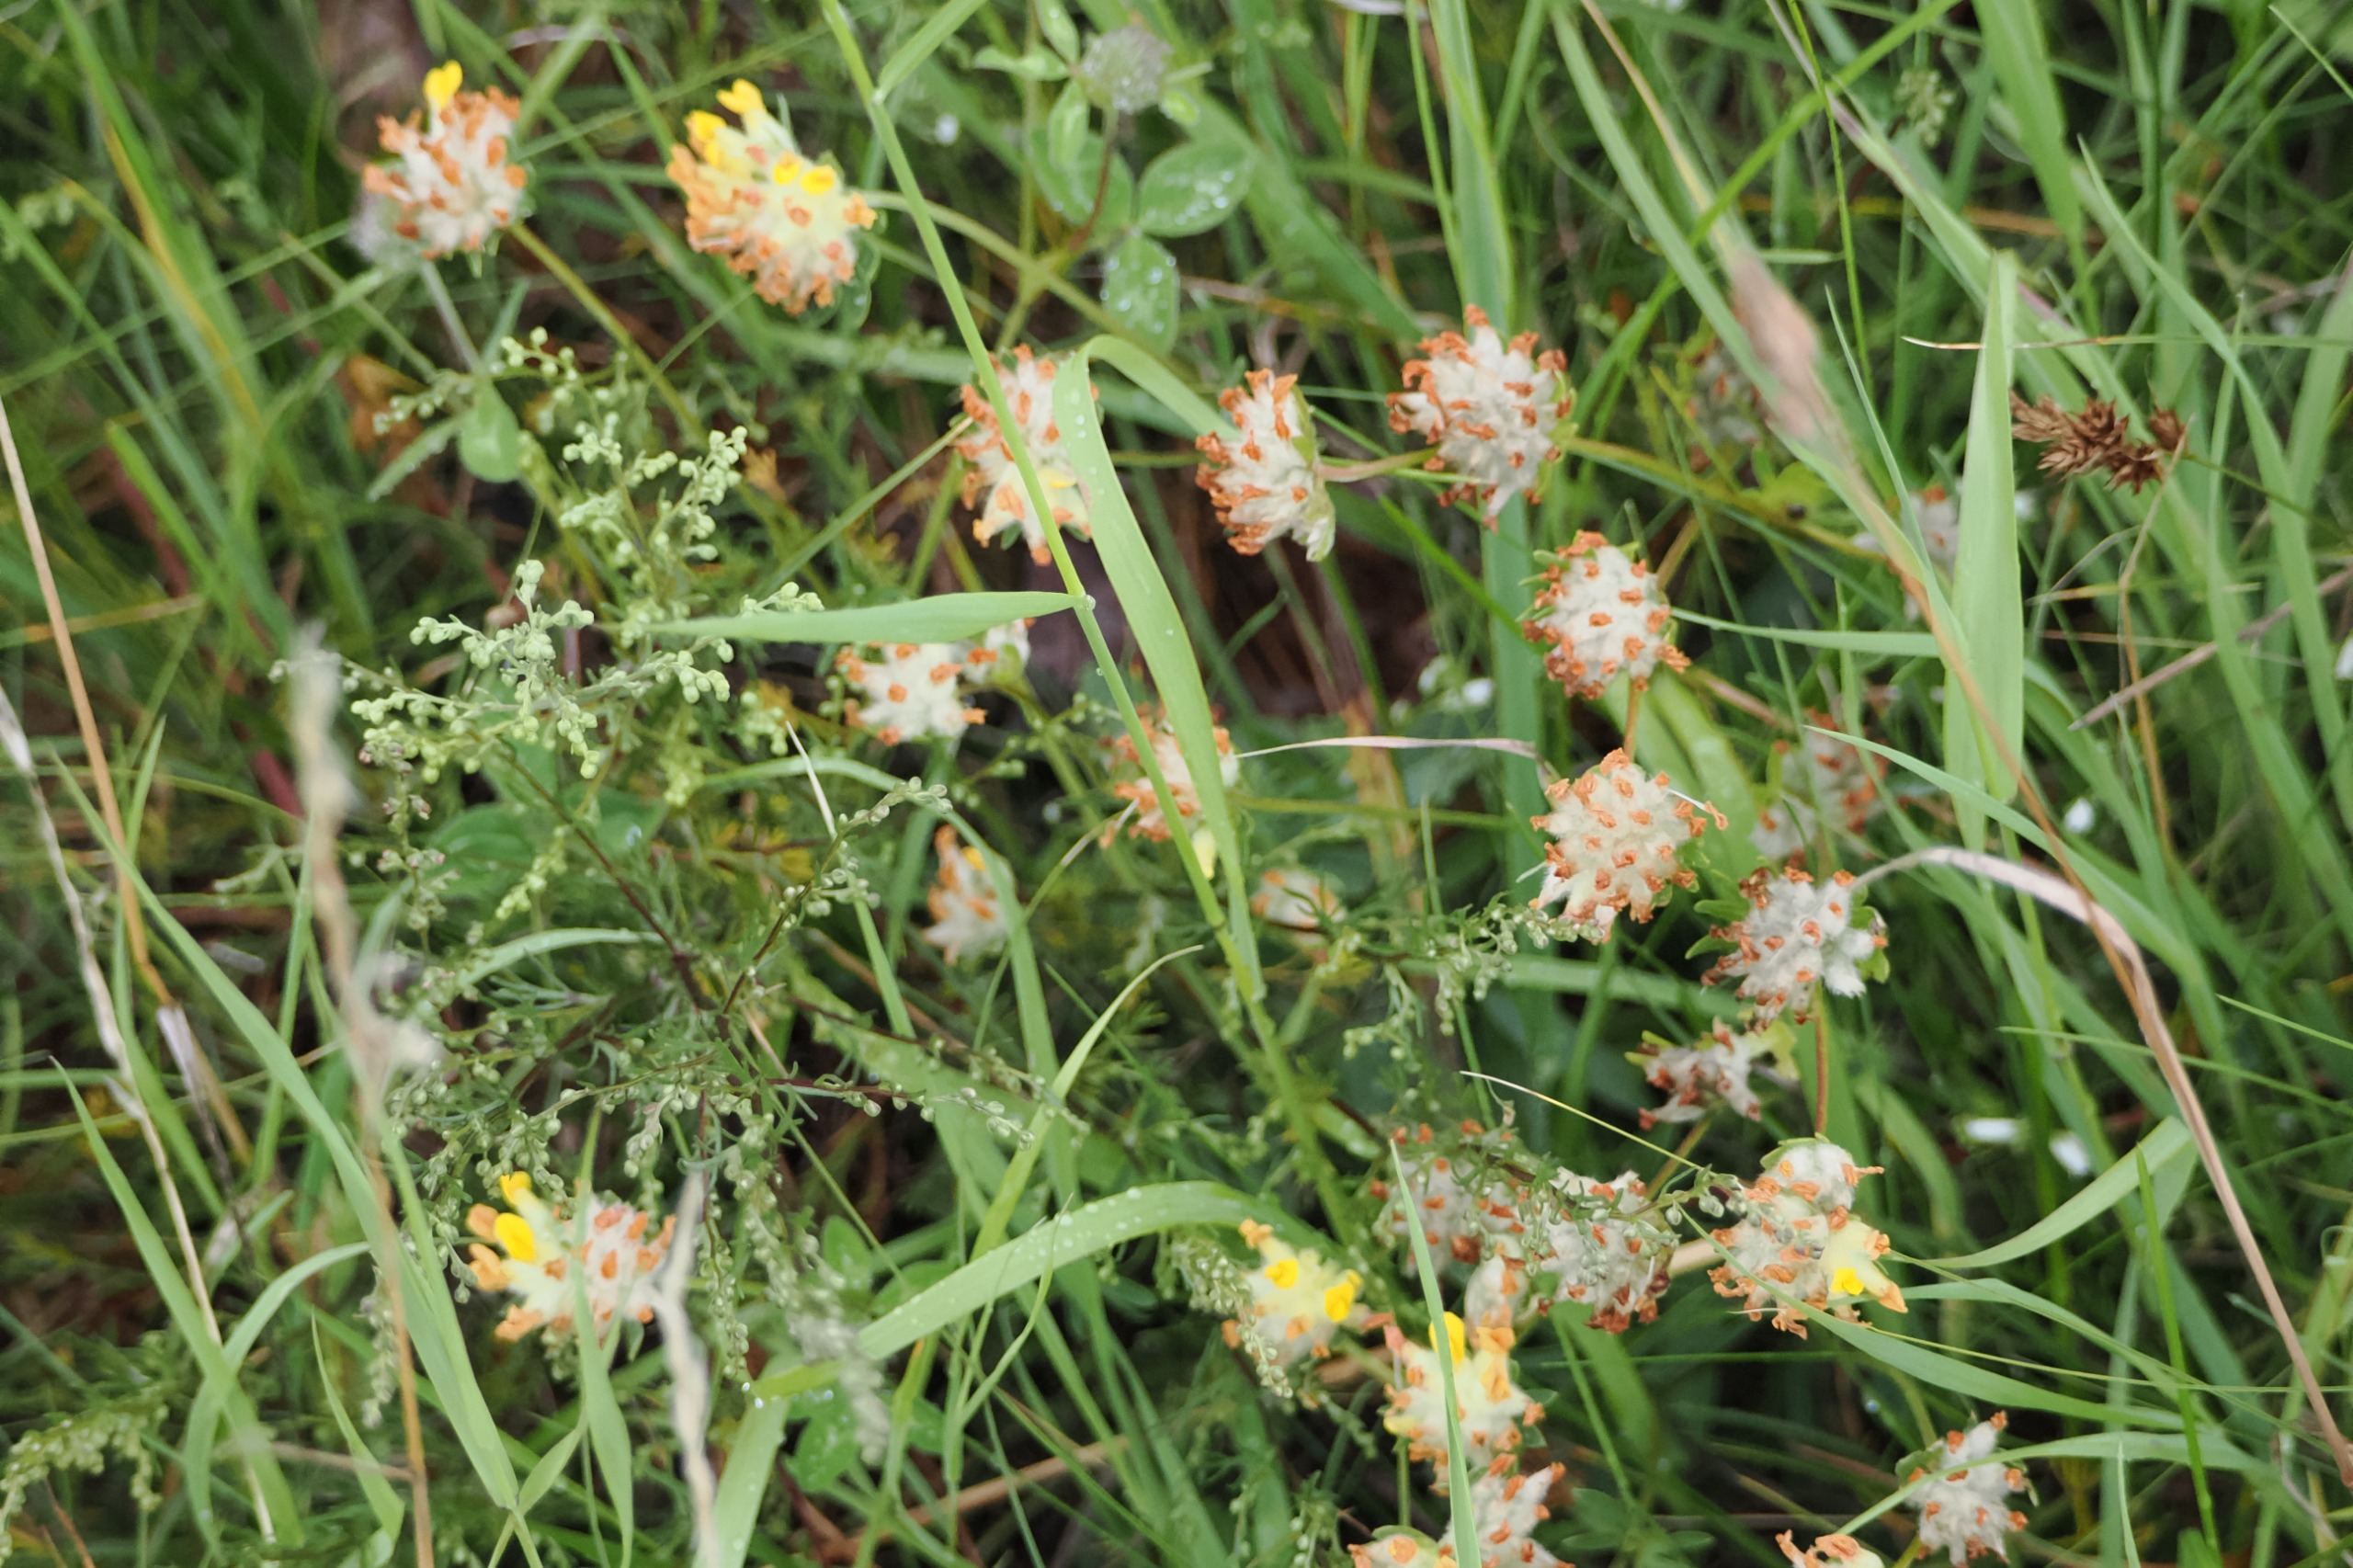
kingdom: Plantae
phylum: Tracheophyta
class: Magnoliopsida
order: Fabales
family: Fabaceae
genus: Anthyllis
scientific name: Anthyllis vulneraria
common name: Rundbælg
